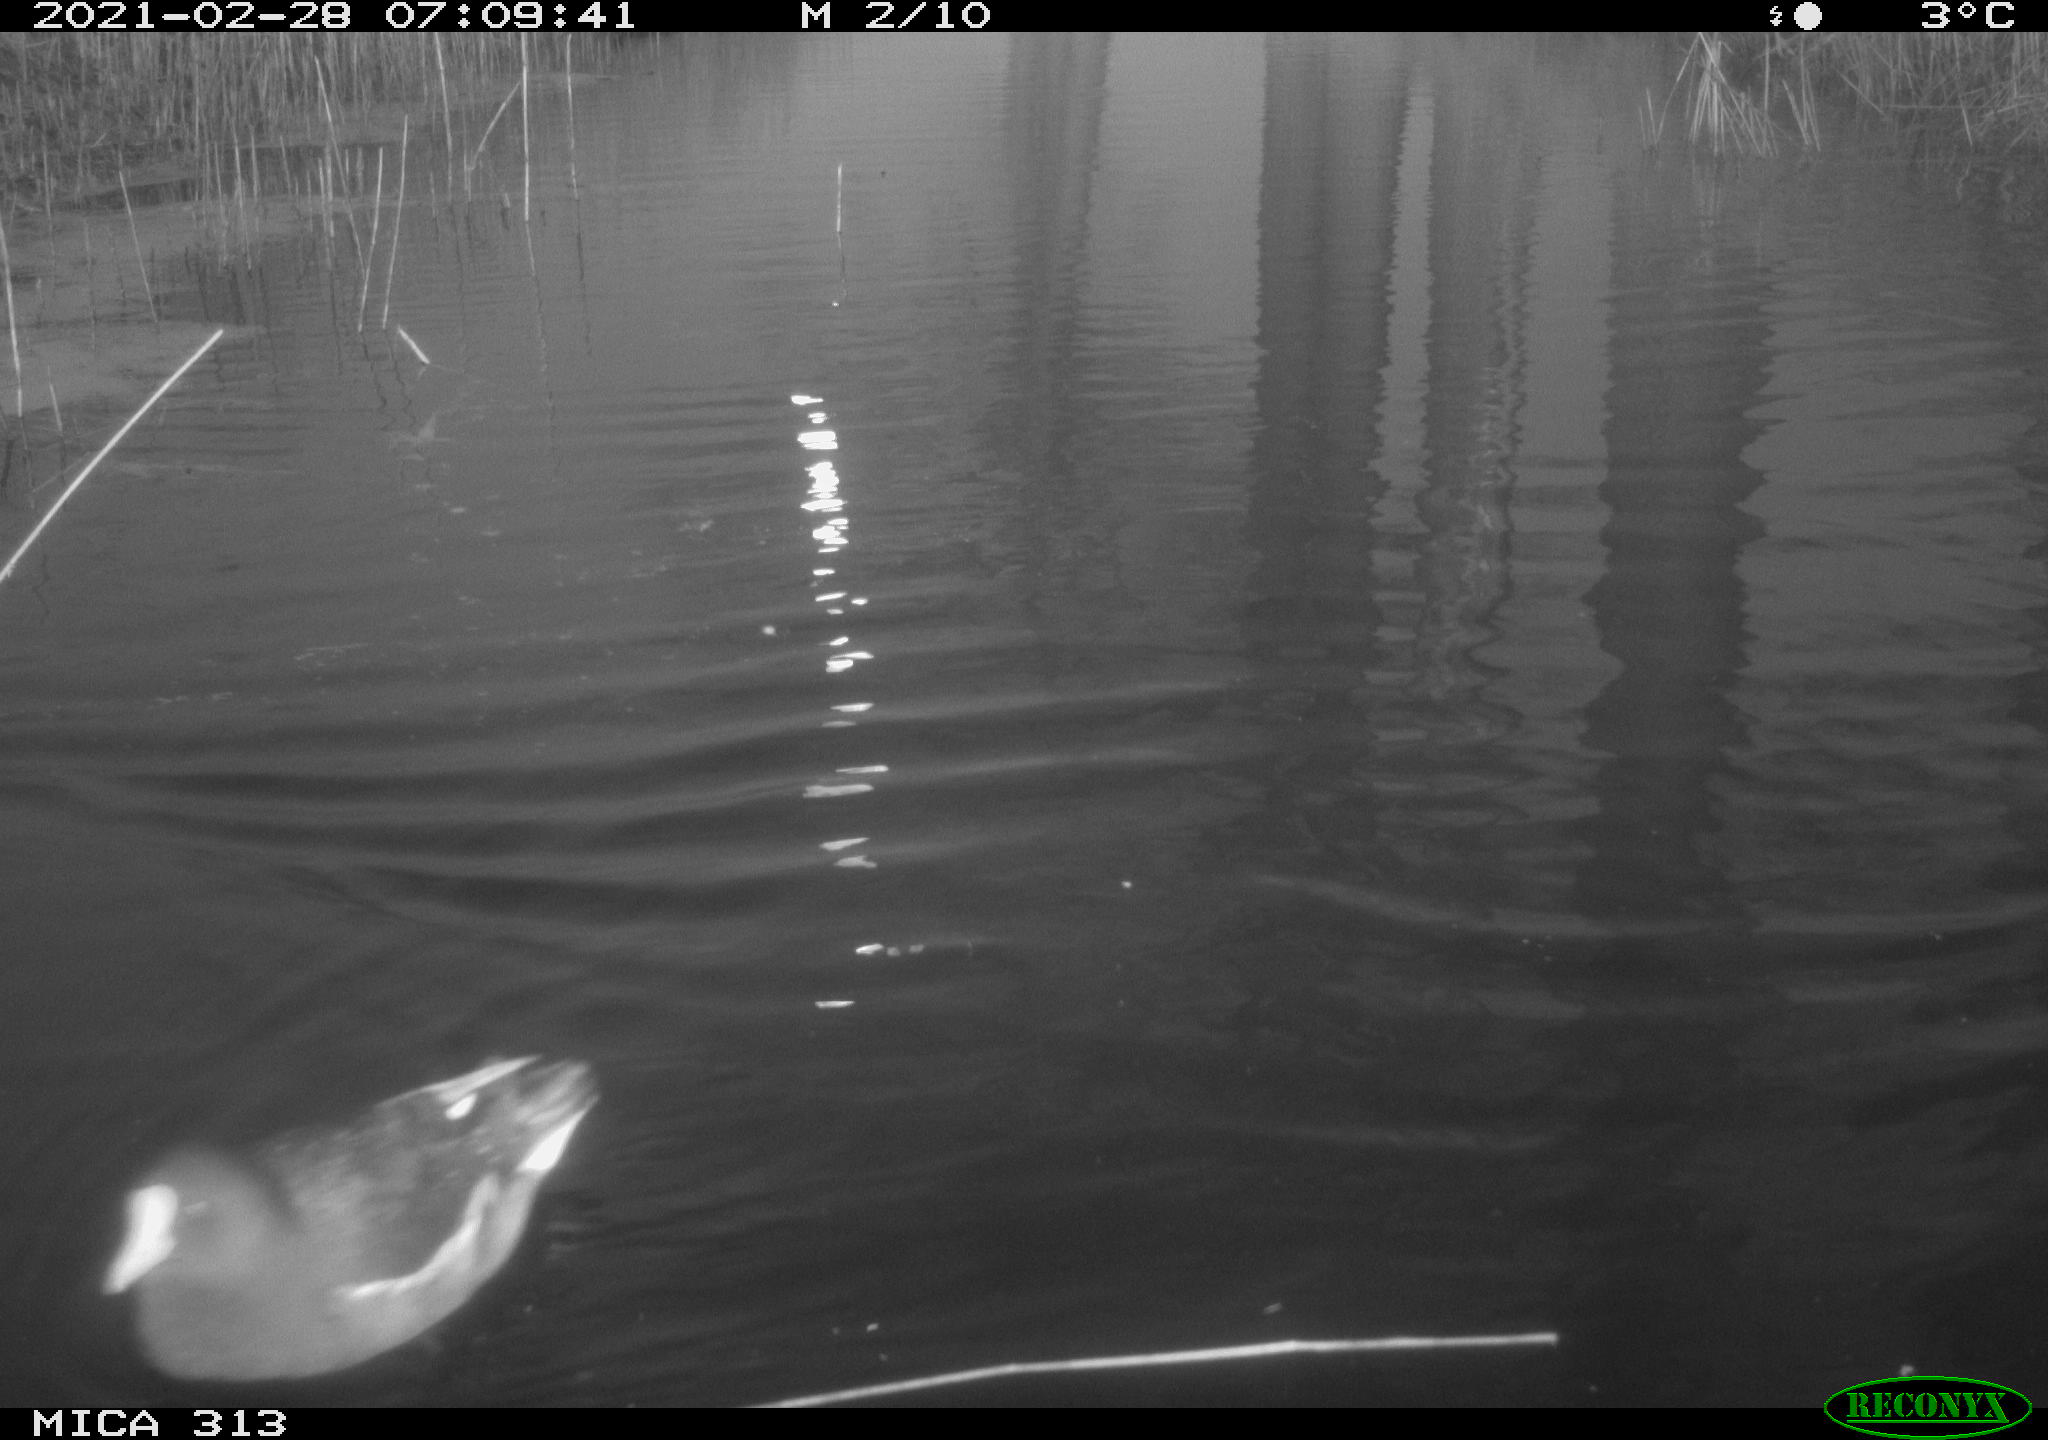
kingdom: Animalia
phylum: Chordata
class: Aves
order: Anseriformes
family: Anatidae
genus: Anas
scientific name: Anas
